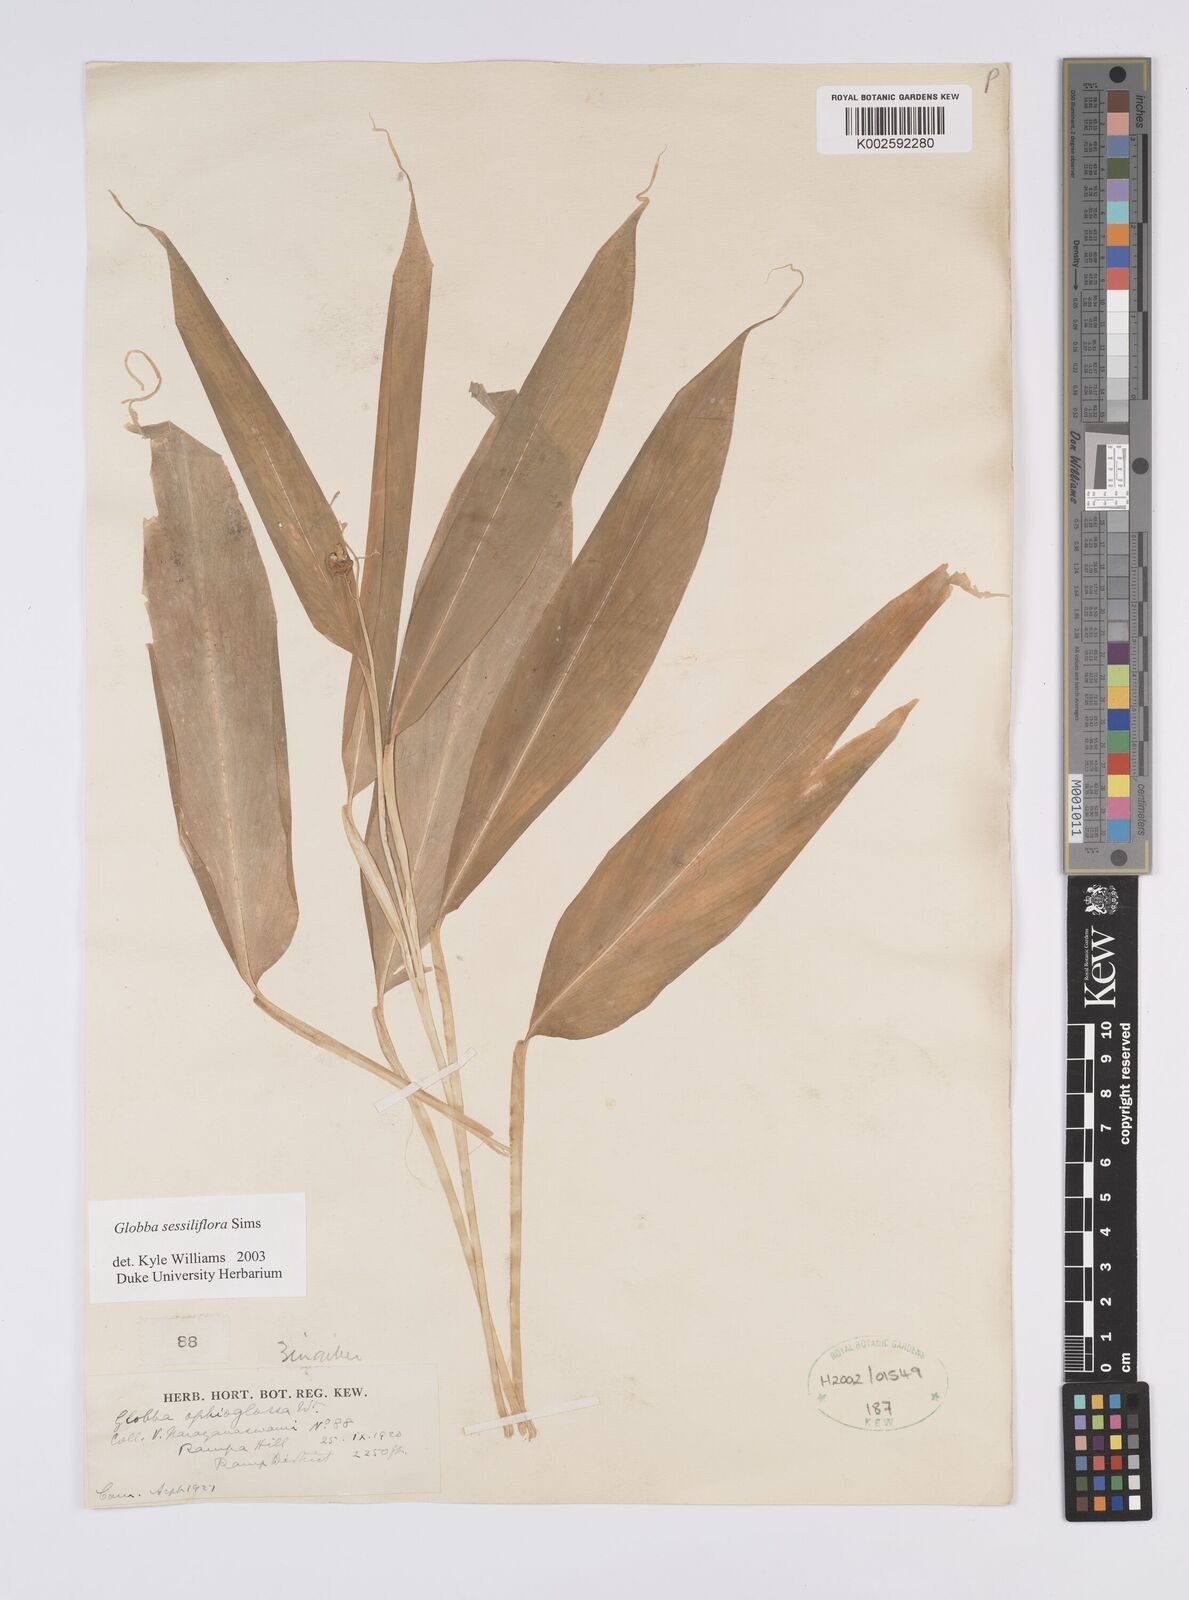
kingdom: Plantae
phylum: Tracheophyta
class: Liliopsida
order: Zingiberales
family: Zingiberaceae
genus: Globba
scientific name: Globba sessiliflora
